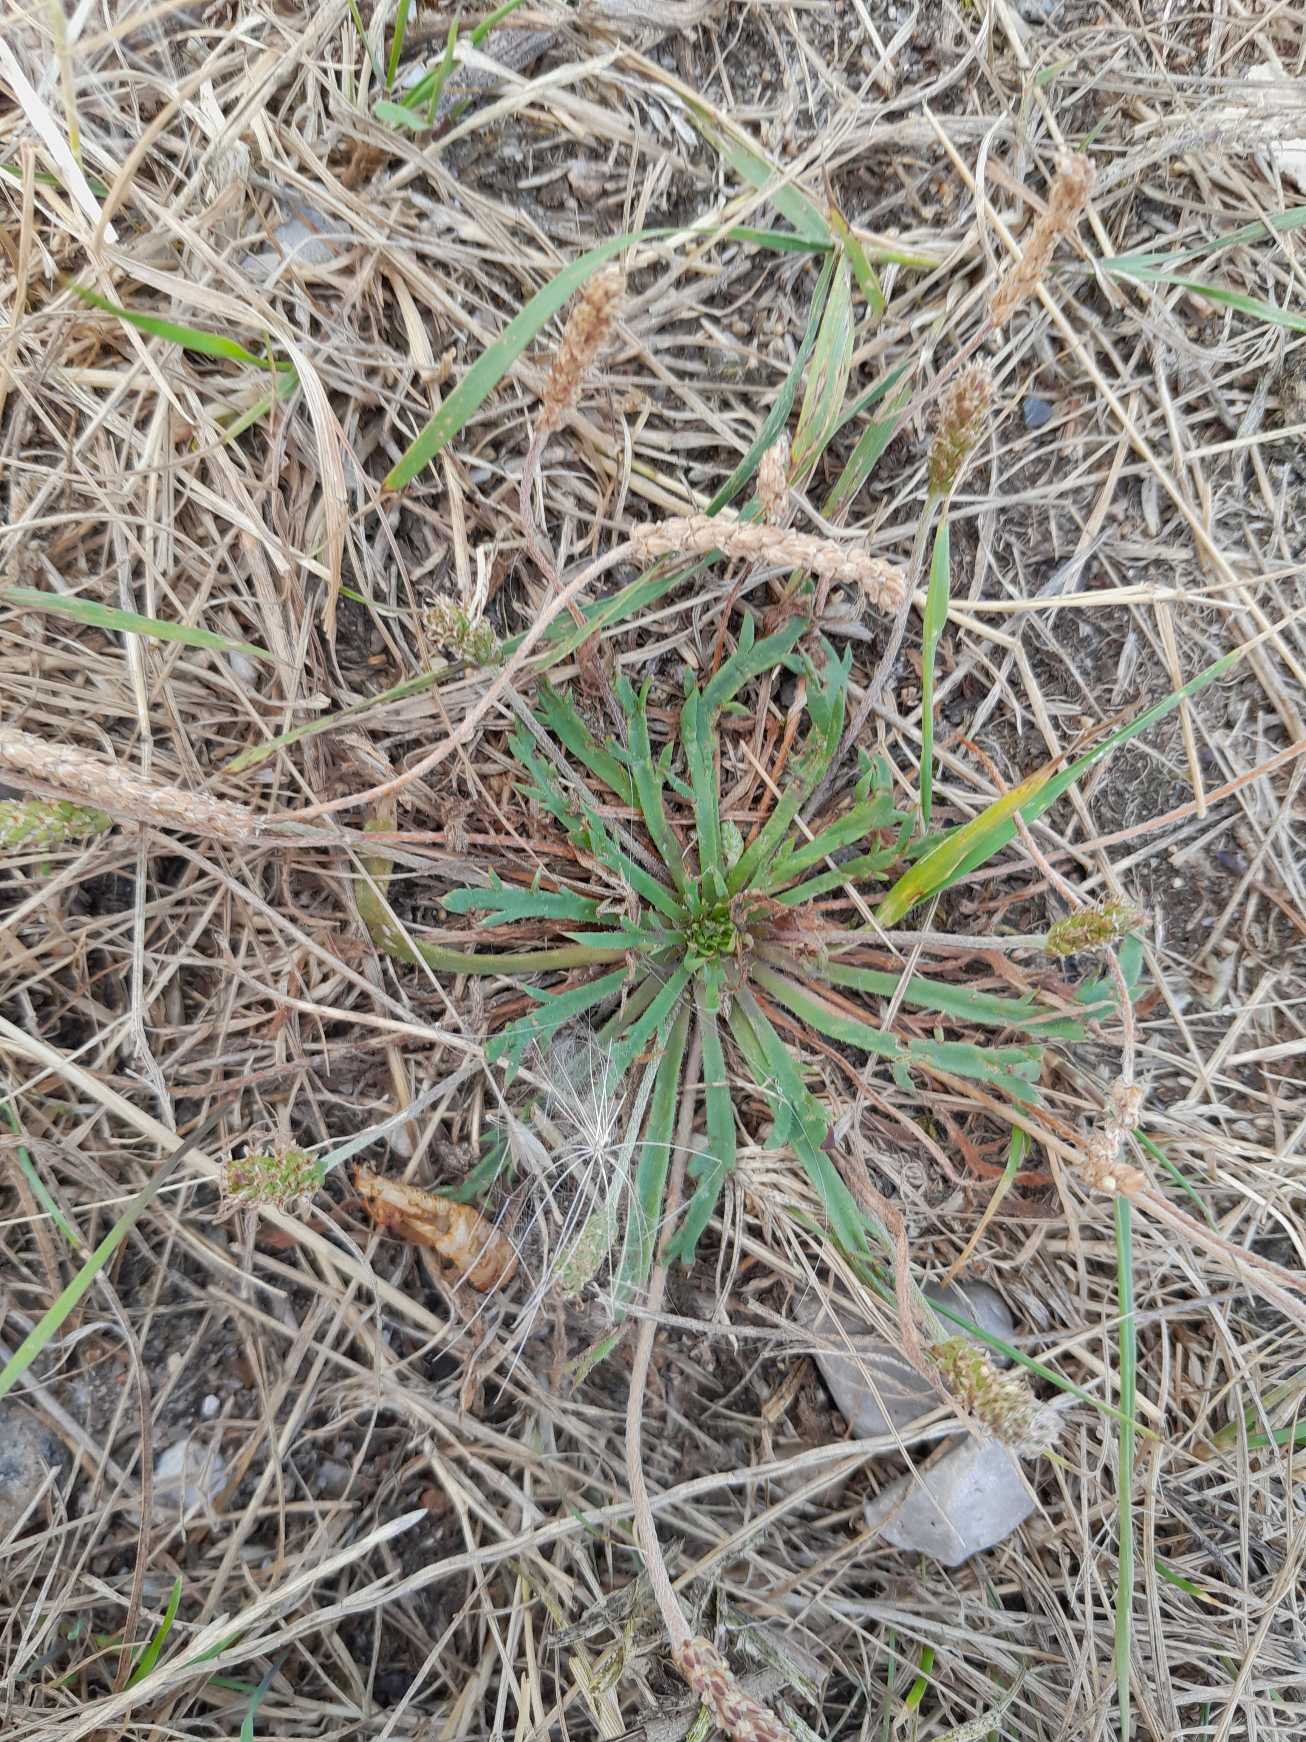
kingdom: Plantae
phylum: Tracheophyta
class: Magnoliopsida
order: Lamiales
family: Plantaginaceae
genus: Plantago
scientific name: Plantago coronopus
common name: Fliget vejbred
